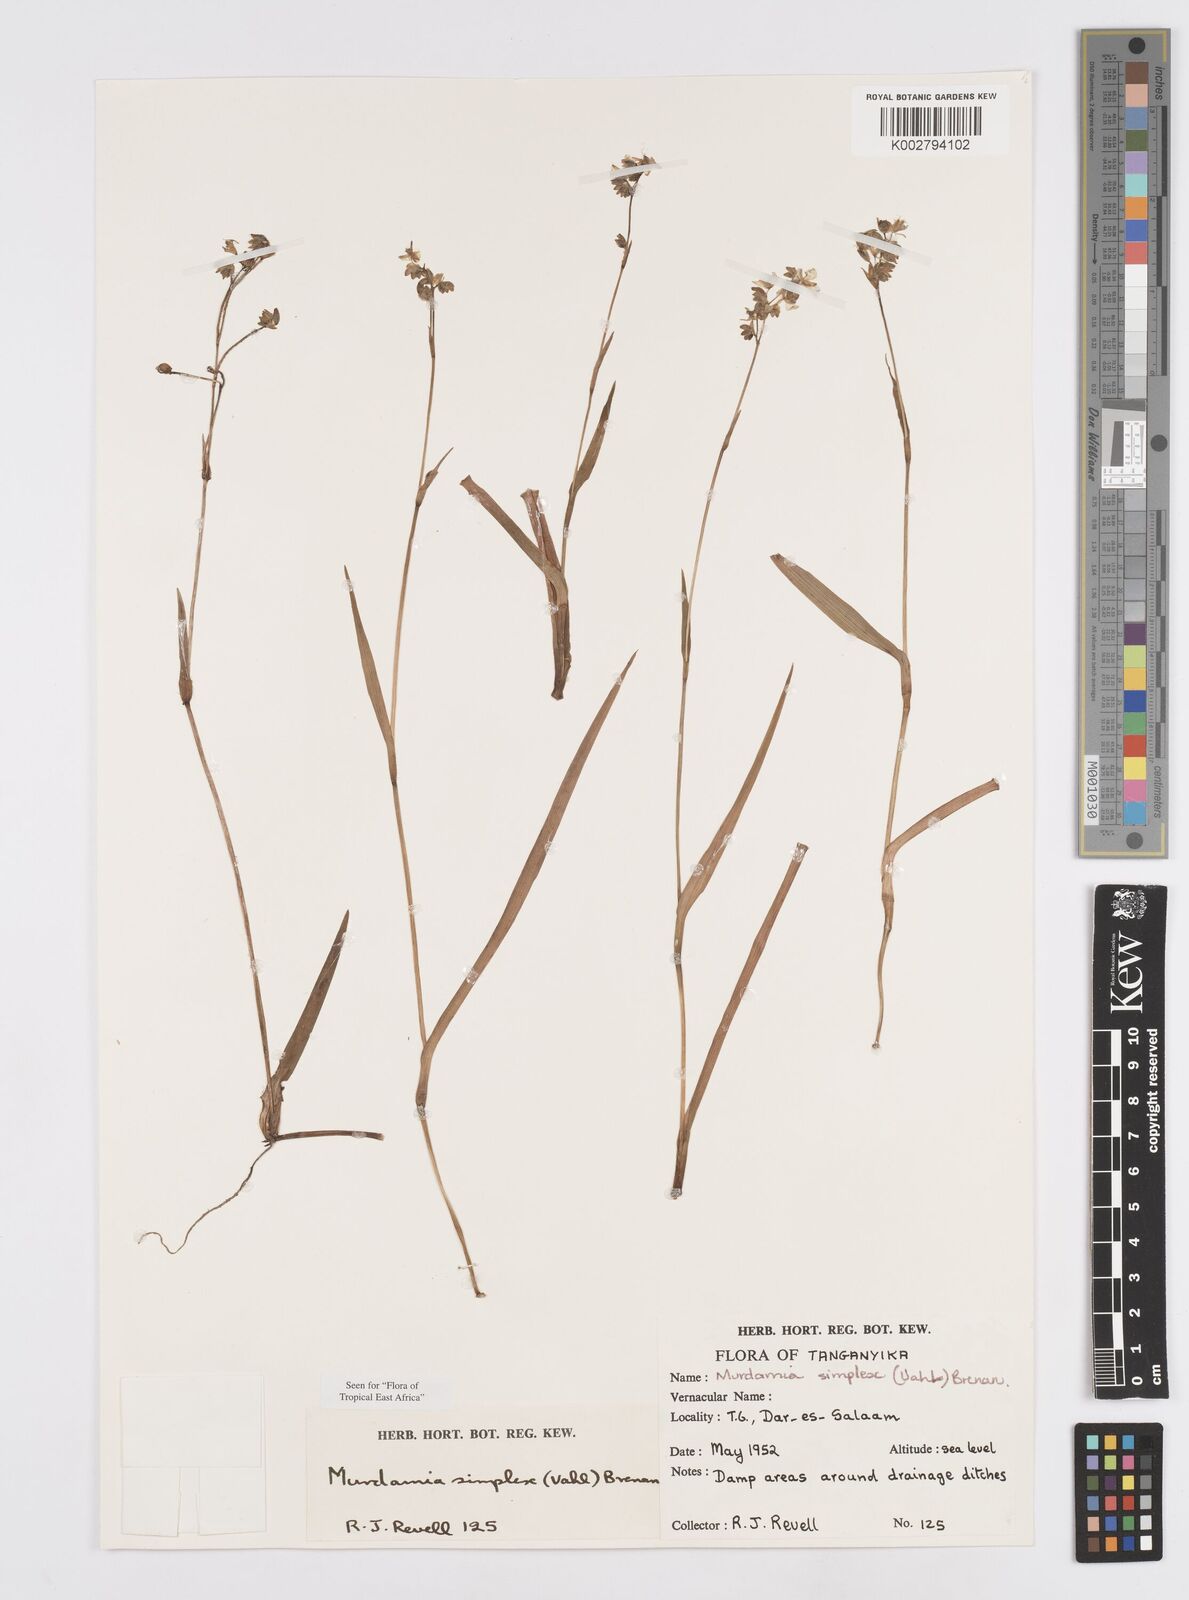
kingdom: Plantae
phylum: Tracheophyta
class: Liliopsida
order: Commelinales
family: Commelinaceae
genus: Murdannia
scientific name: Murdannia simplex
